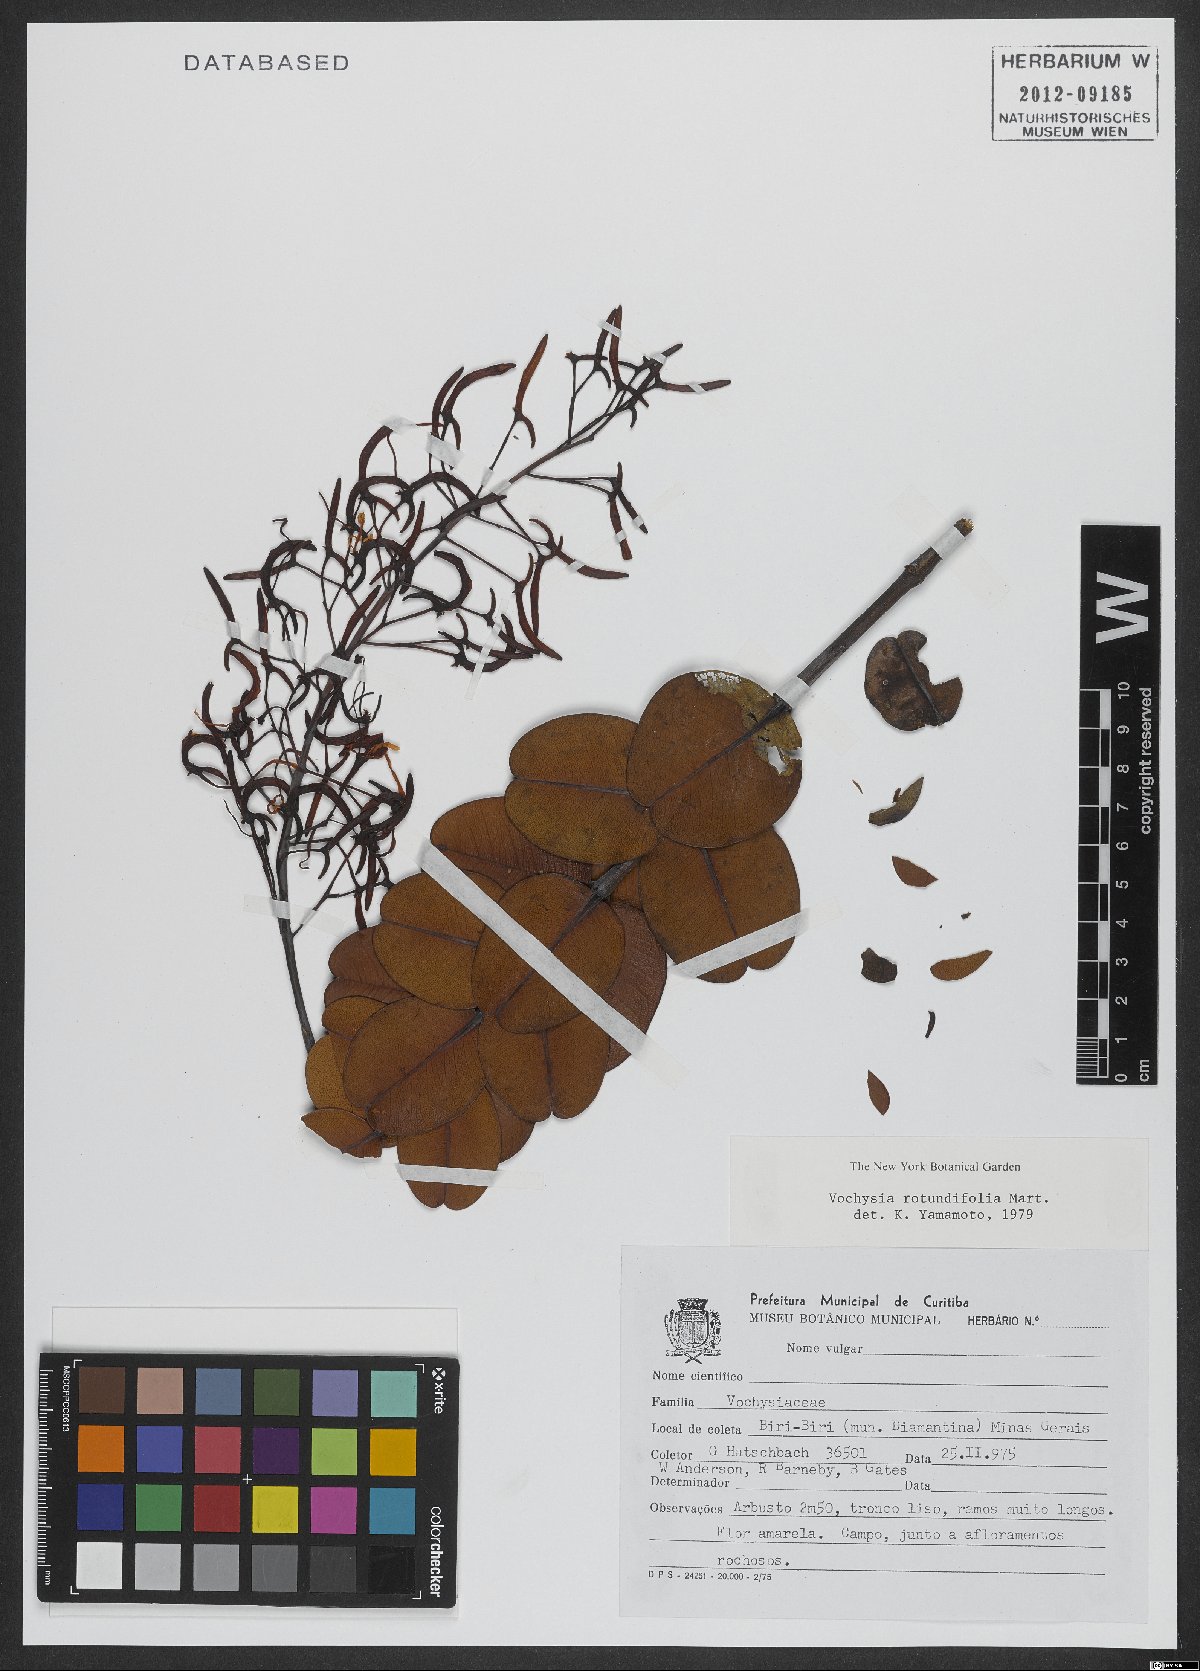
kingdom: Plantae
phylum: Tracheophyta
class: Magnoliopsida
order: Myrtales
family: Vochysiaceae
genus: Vochysia
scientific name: Vochysia rotundifolia
